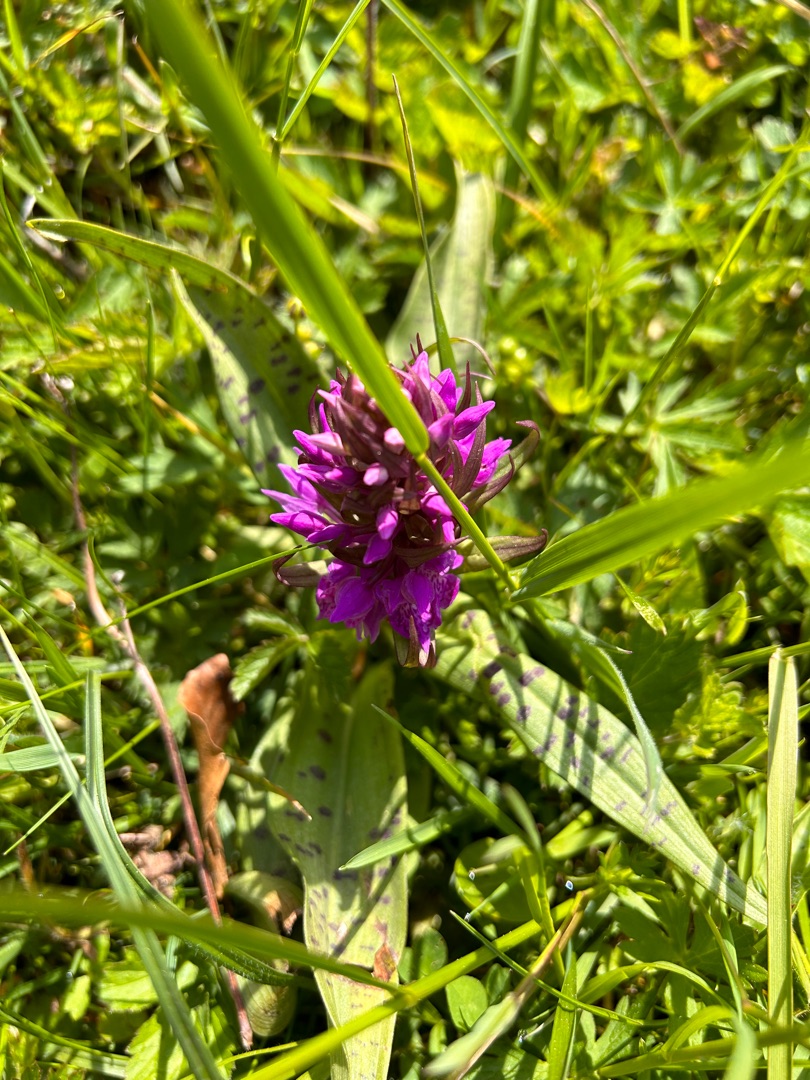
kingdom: Plantae
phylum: Tracheophyta
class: Liliopsida
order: Asparagales
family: Orchidaceae
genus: Dactylorhiza
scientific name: Dactylorhiza majalis
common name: Maj-gøgeurt
